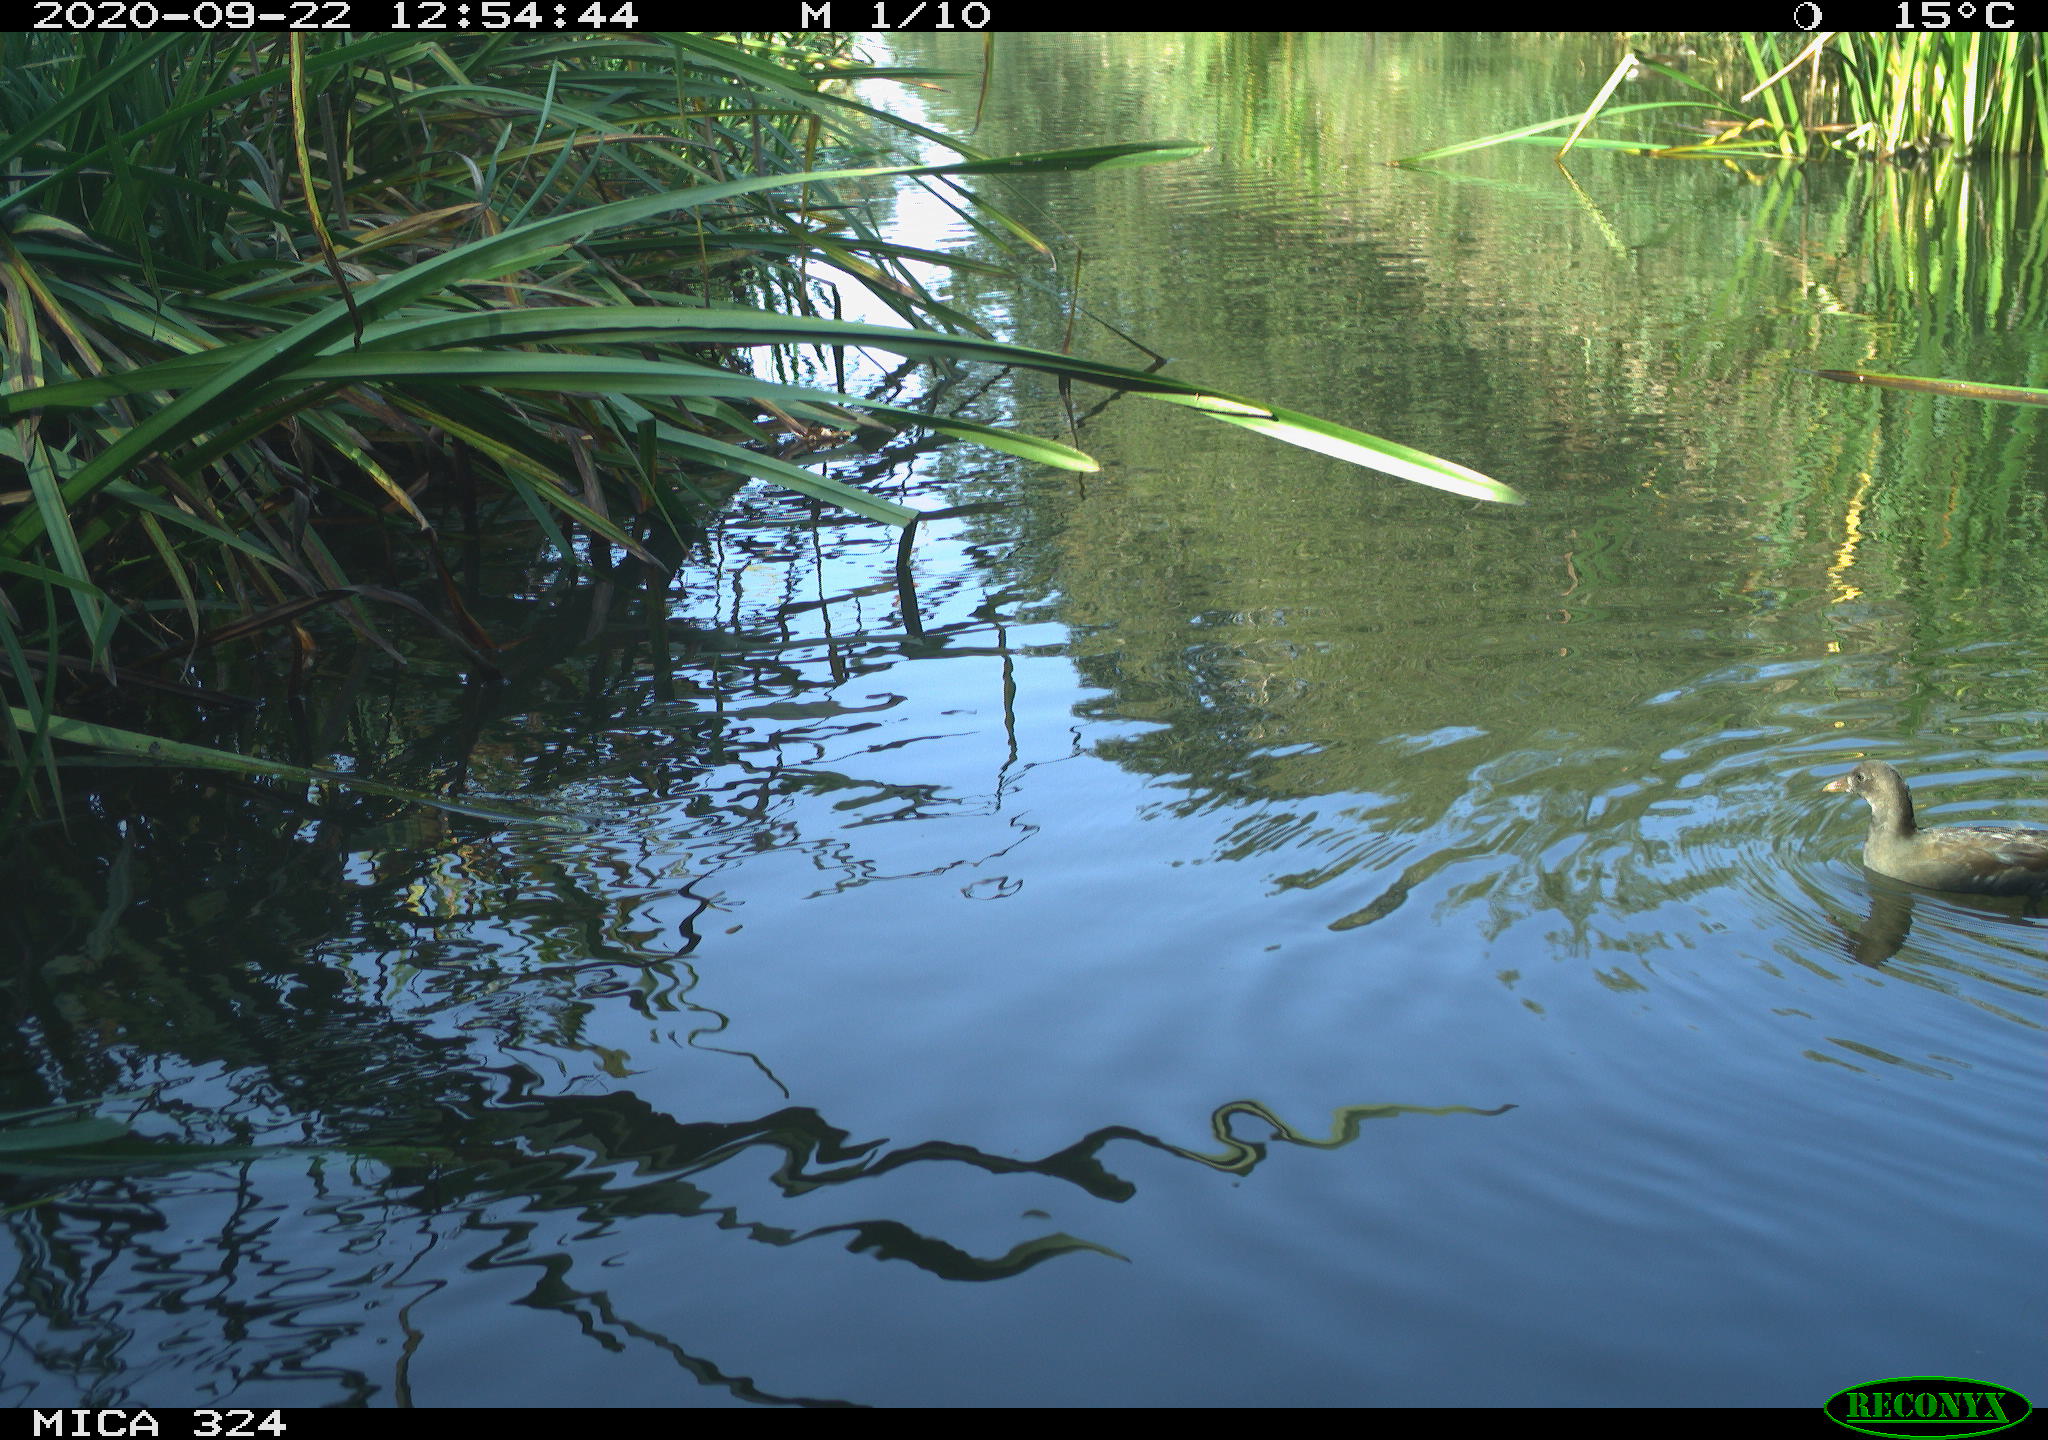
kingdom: Animalia
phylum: Chordata
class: Aves
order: Gruiformes
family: Rallidae
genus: Gallinula
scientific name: Gallinula chloropus
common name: Common moorhen
